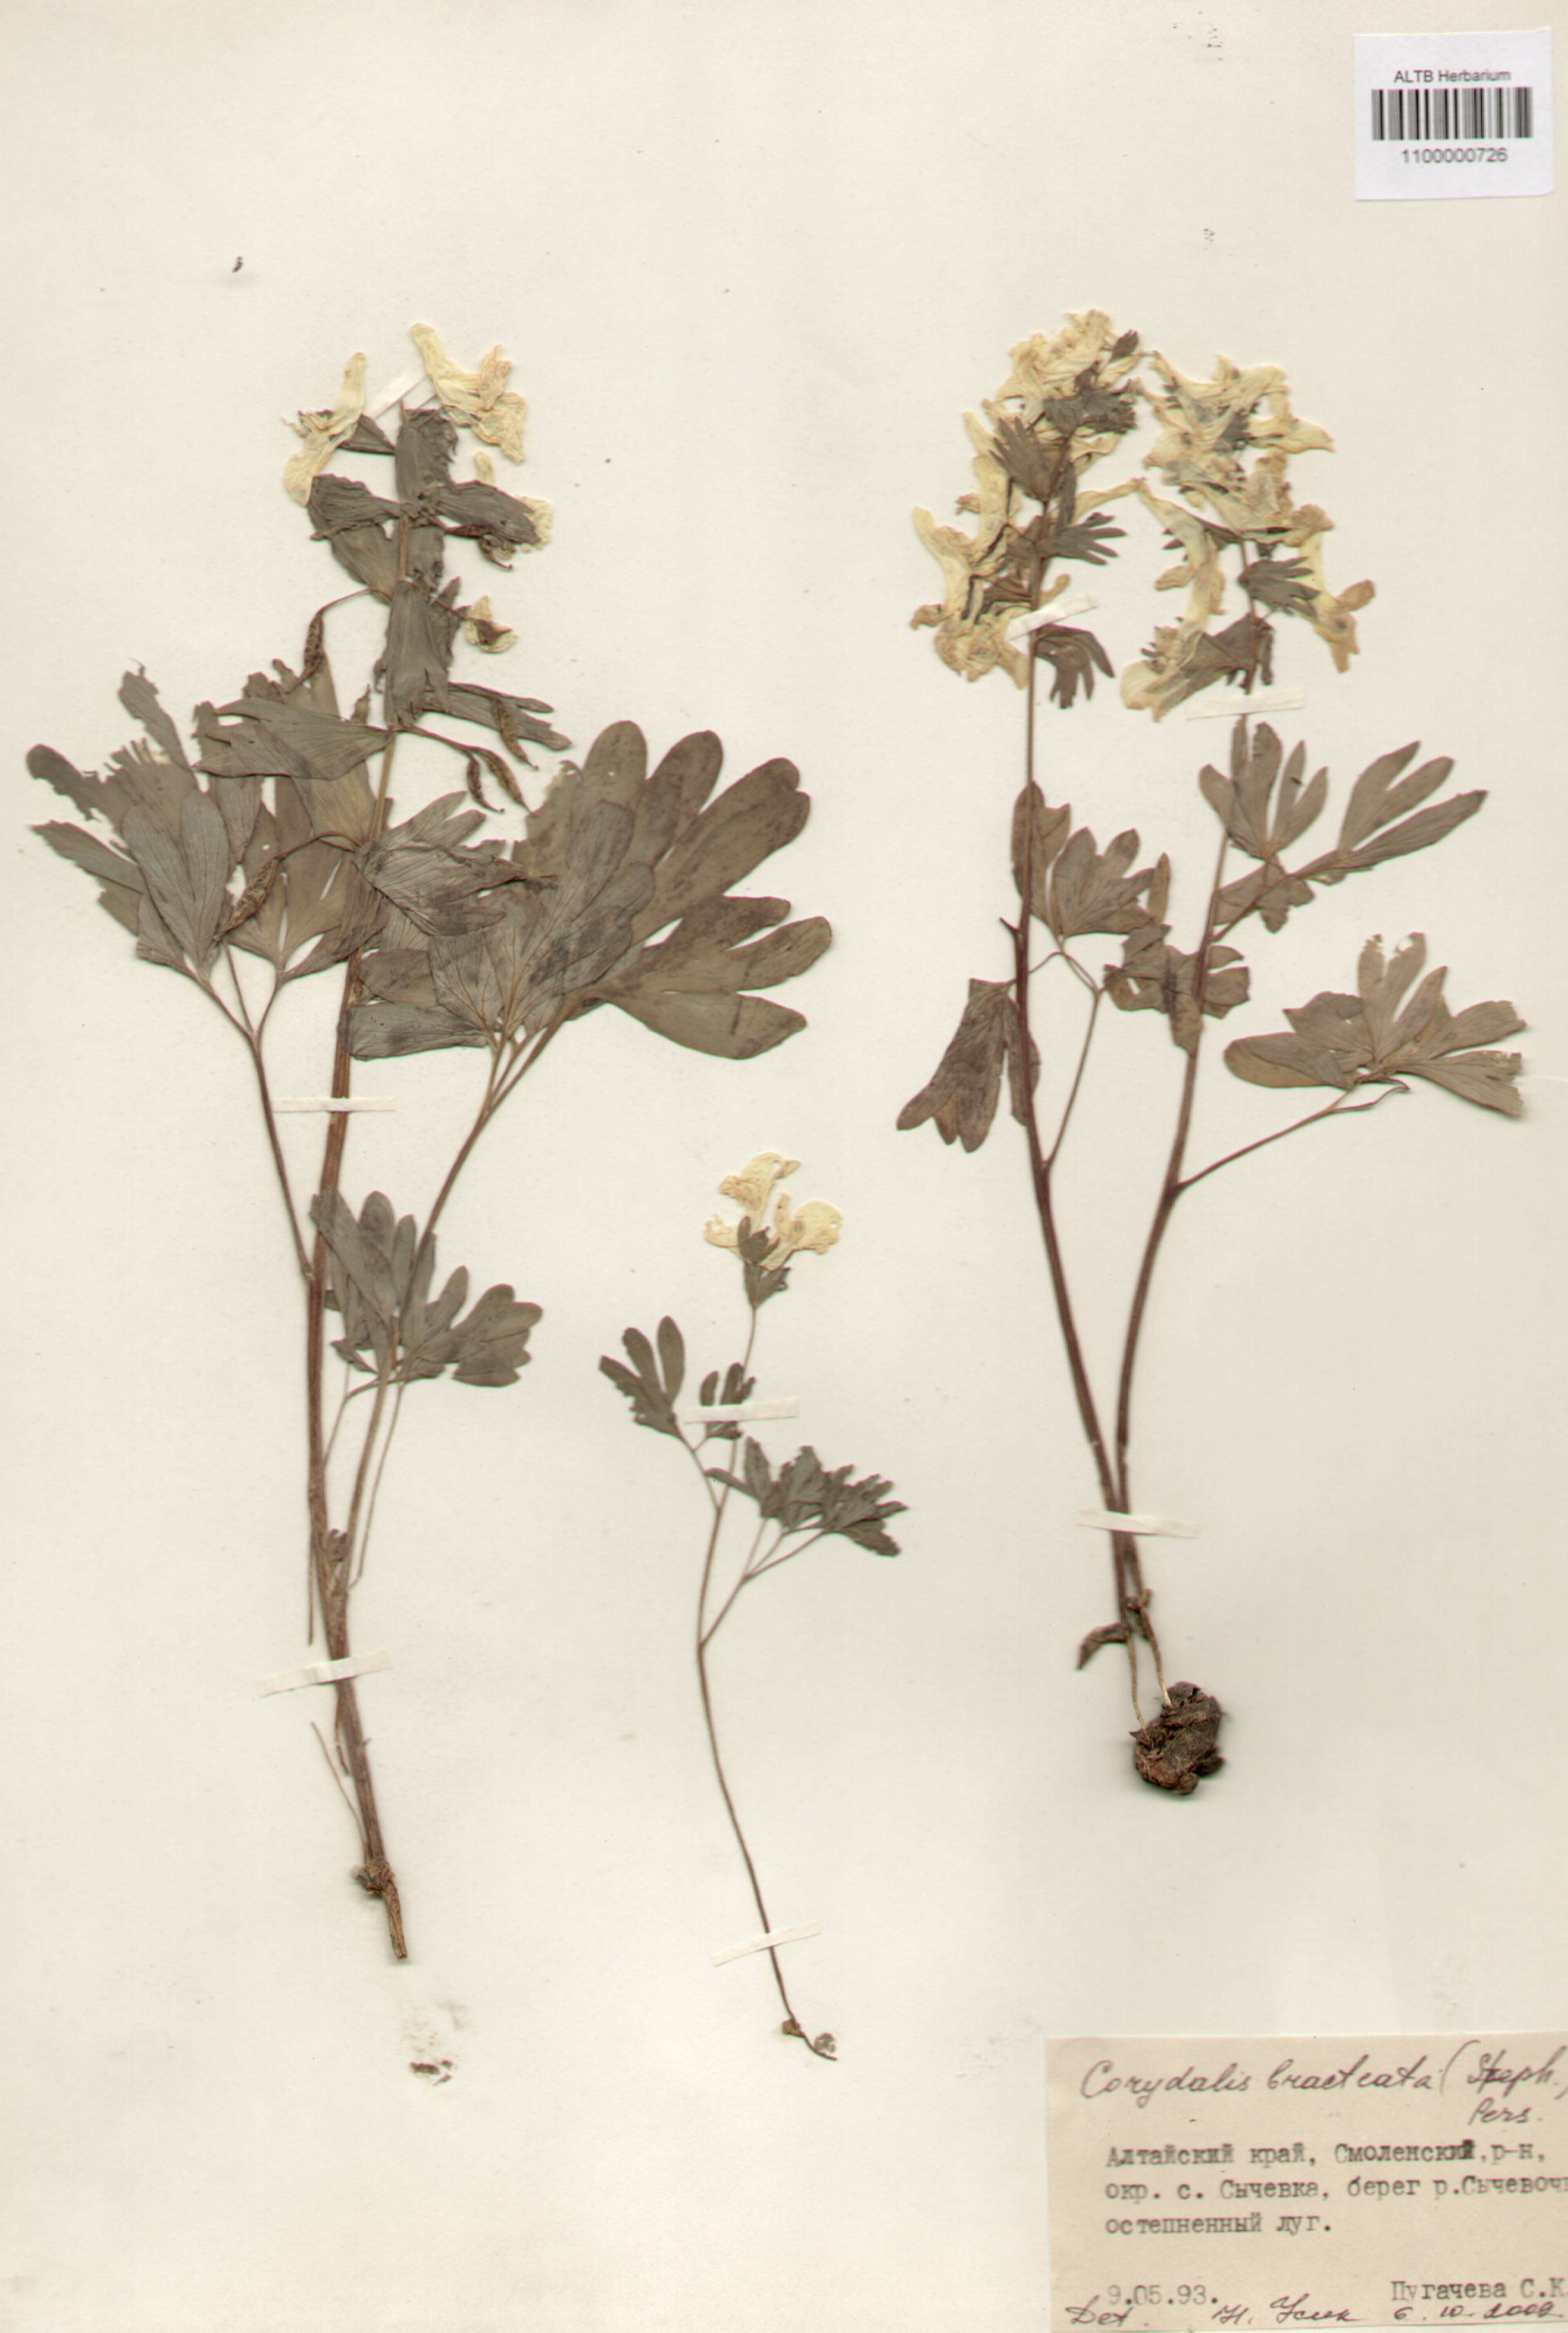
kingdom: Plantae
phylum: Tracheophyta
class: Magnoliopsida
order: Ranunculales
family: Papaveraceae
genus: Corydalis
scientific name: Corydalis bracteata
